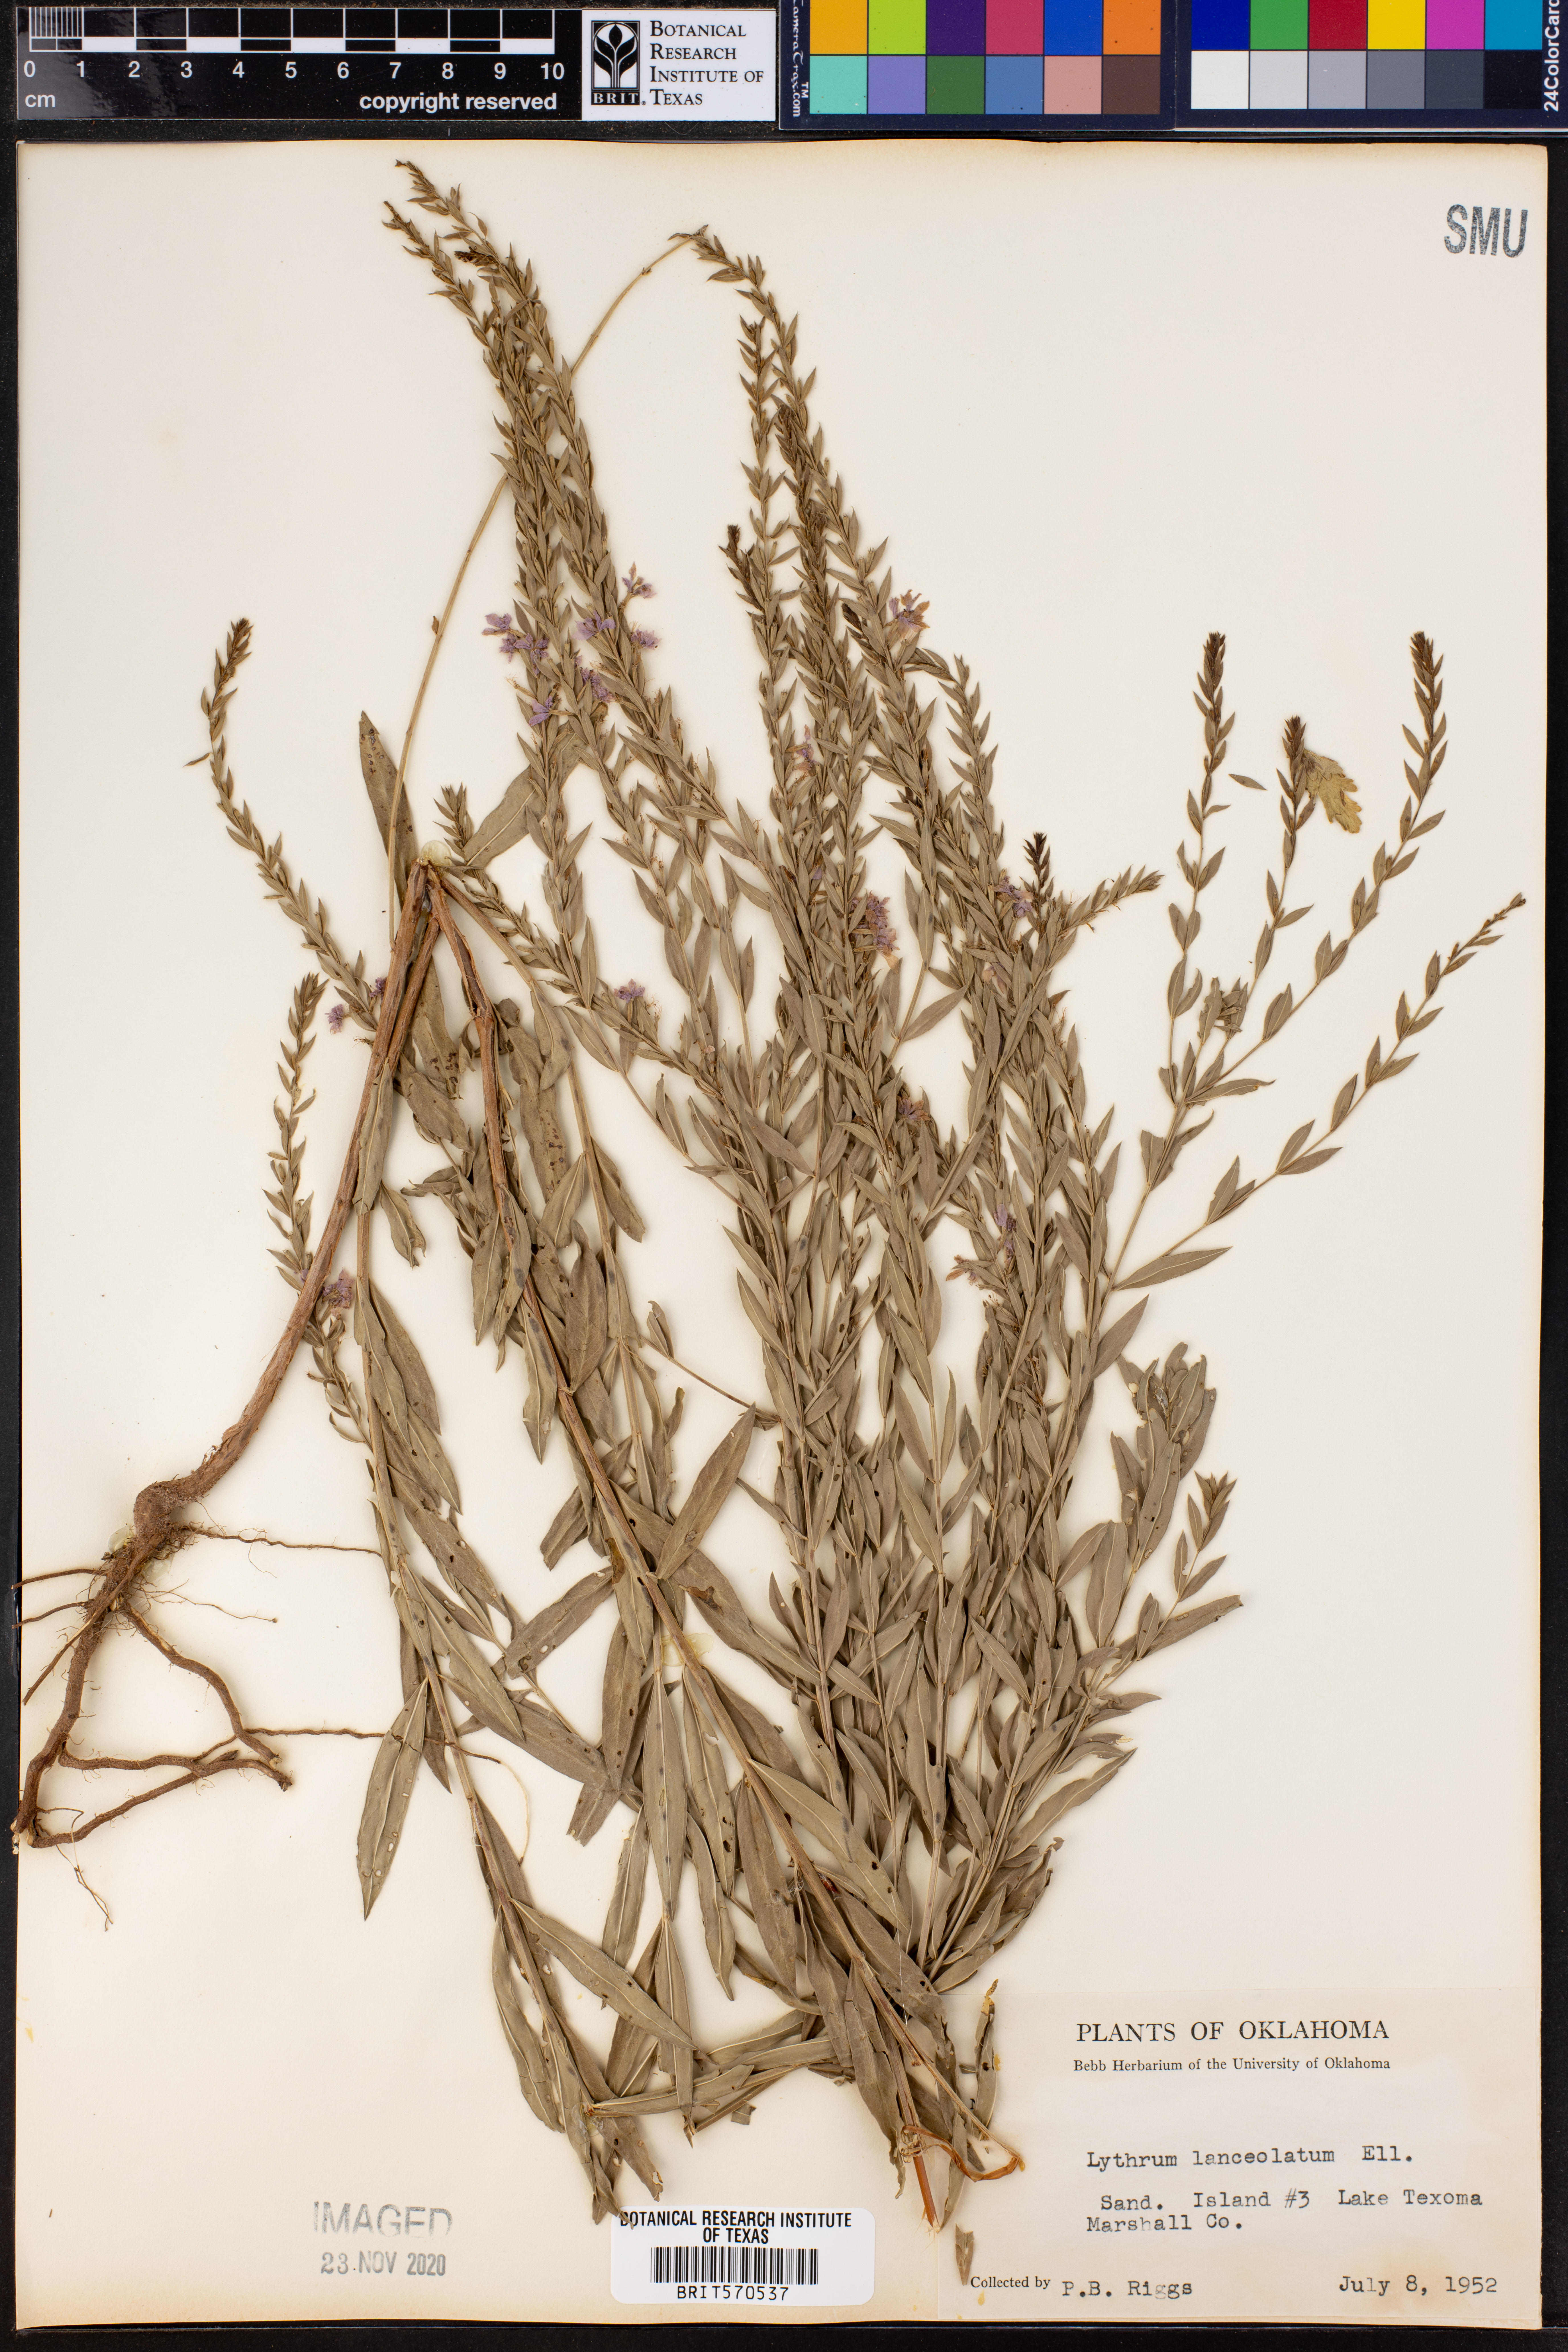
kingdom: Plantae
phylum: Tracheophyta
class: Magnoliopsida
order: Myrtales
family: Lythraceae
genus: Lythrum
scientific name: Lythrum alatum
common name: Winged loosestrife
